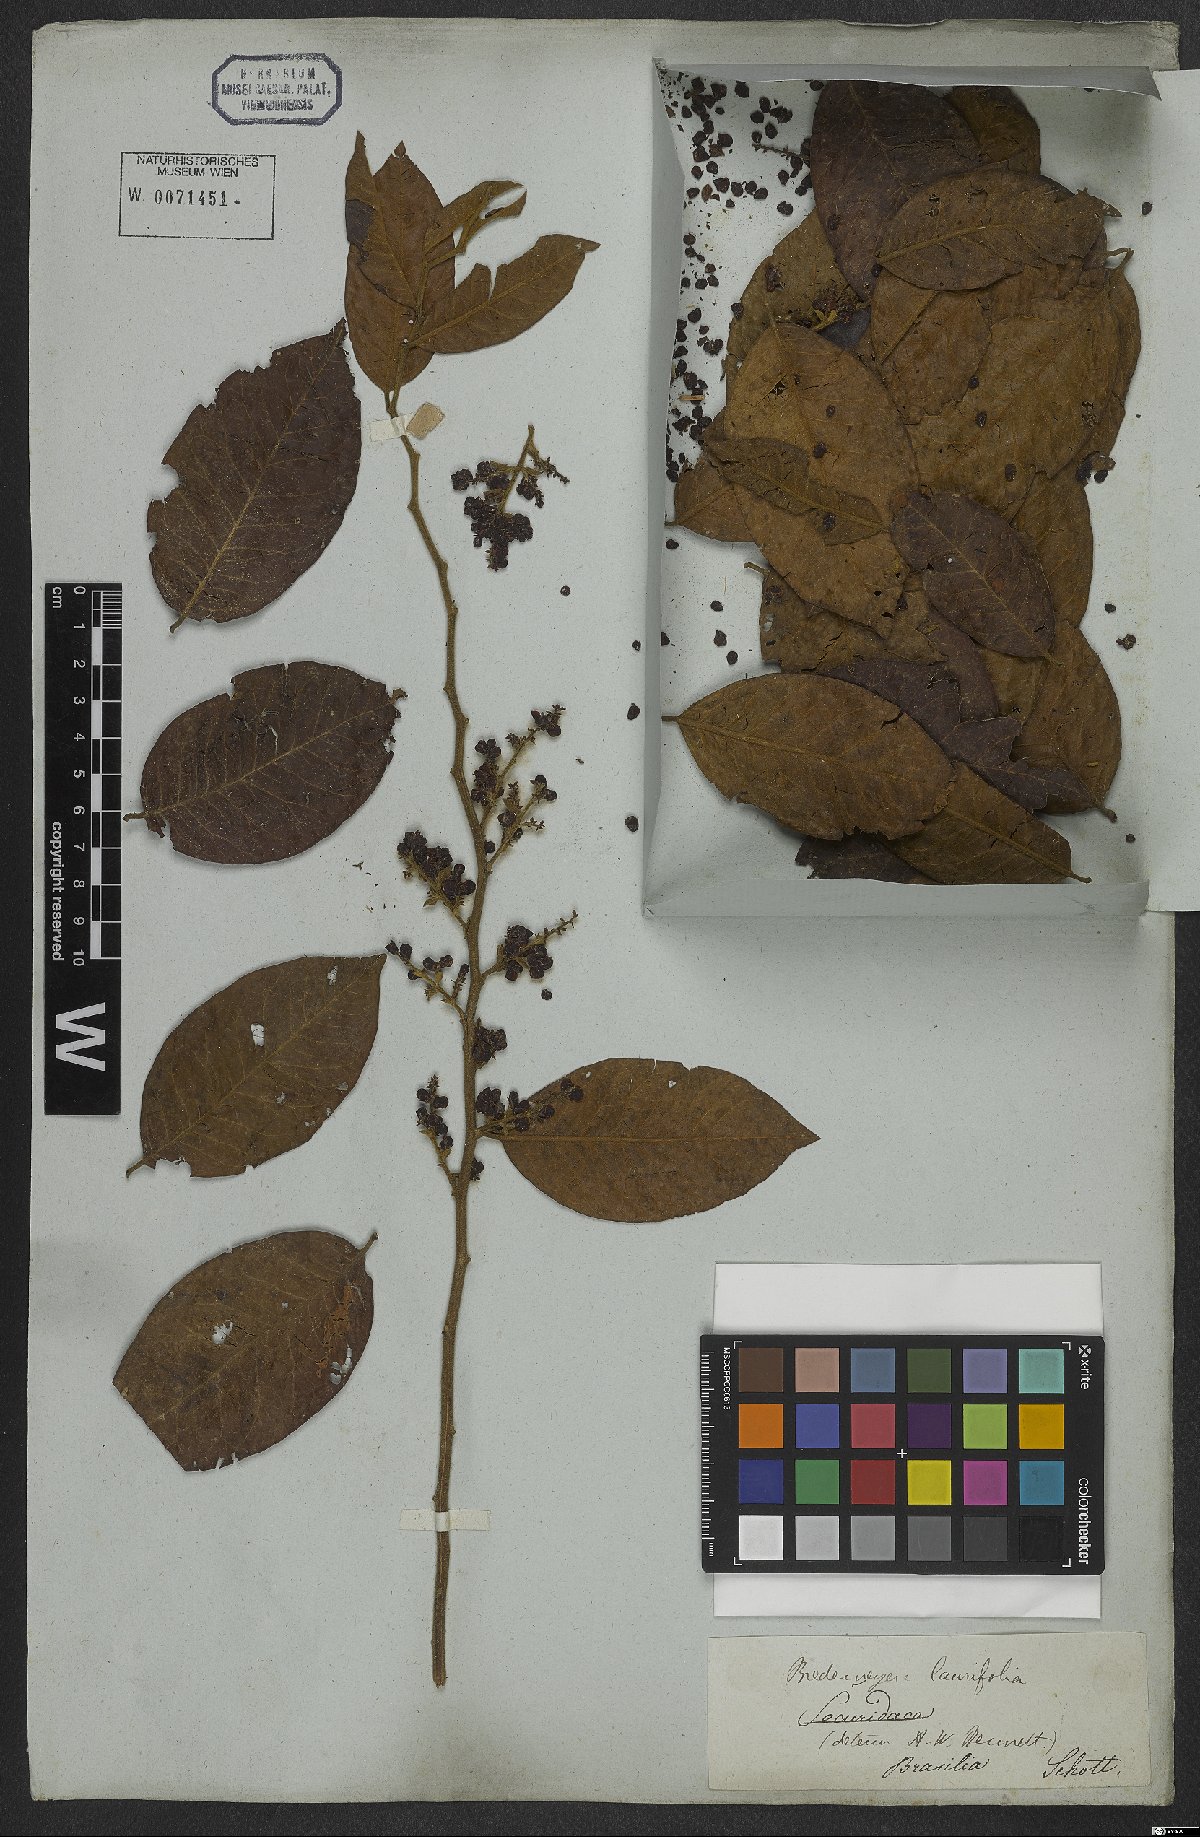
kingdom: Plantae
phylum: Tracheophyta
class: Magnoliopsida
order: Fabales
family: Polygalaceae
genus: Bredemeyera
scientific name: Bredemeyera laurifolia
